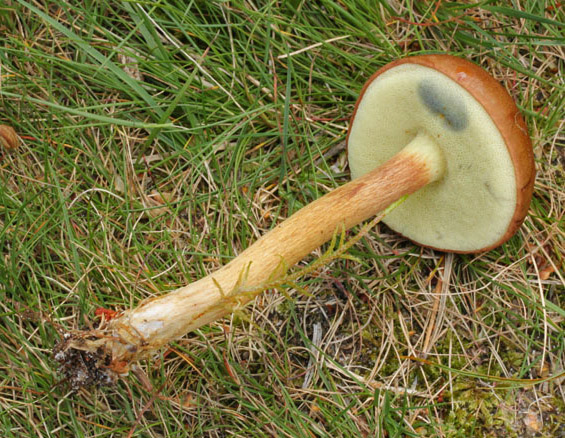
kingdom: Fungi
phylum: Basidiomycota
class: Agaricomycetes
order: Boletales
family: Boletaceae
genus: Imleria
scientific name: Imleria badia
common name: brunstokket rørhat
